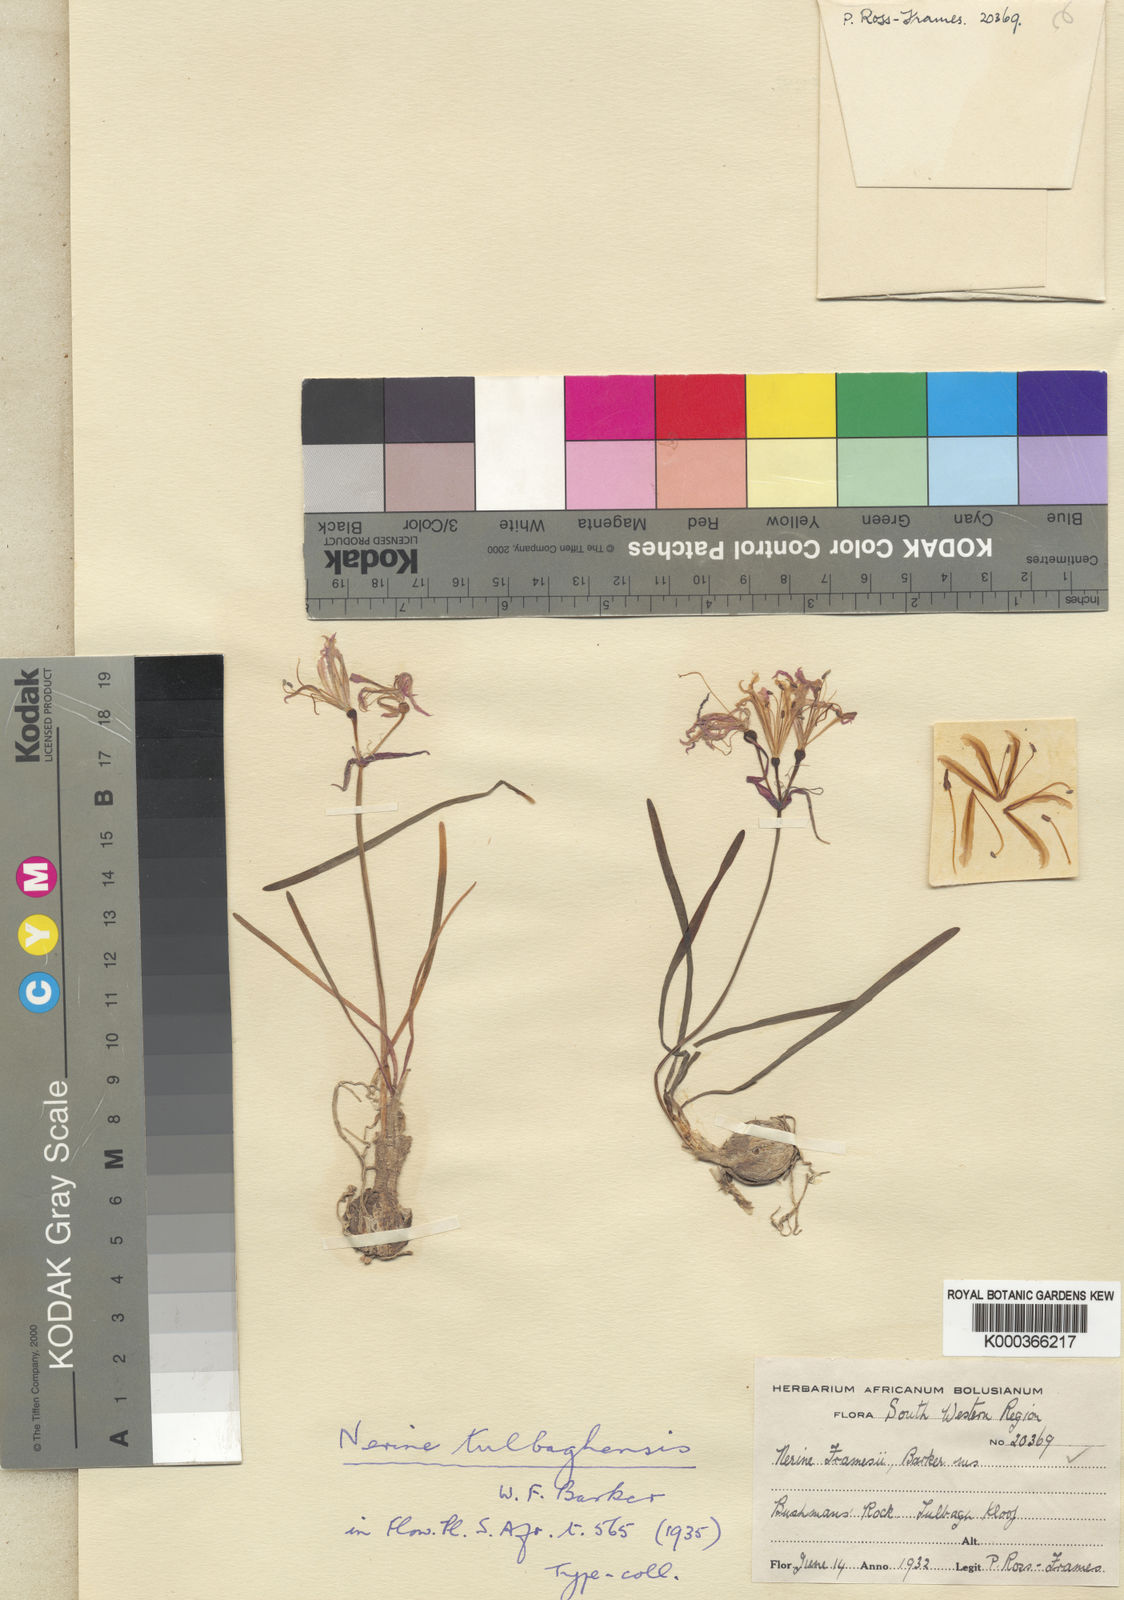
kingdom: Plantae
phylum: Tracheophyta
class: Liliopsida
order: Asparagales
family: Amaryllidaceae
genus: Nerine
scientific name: Nerine humilis
